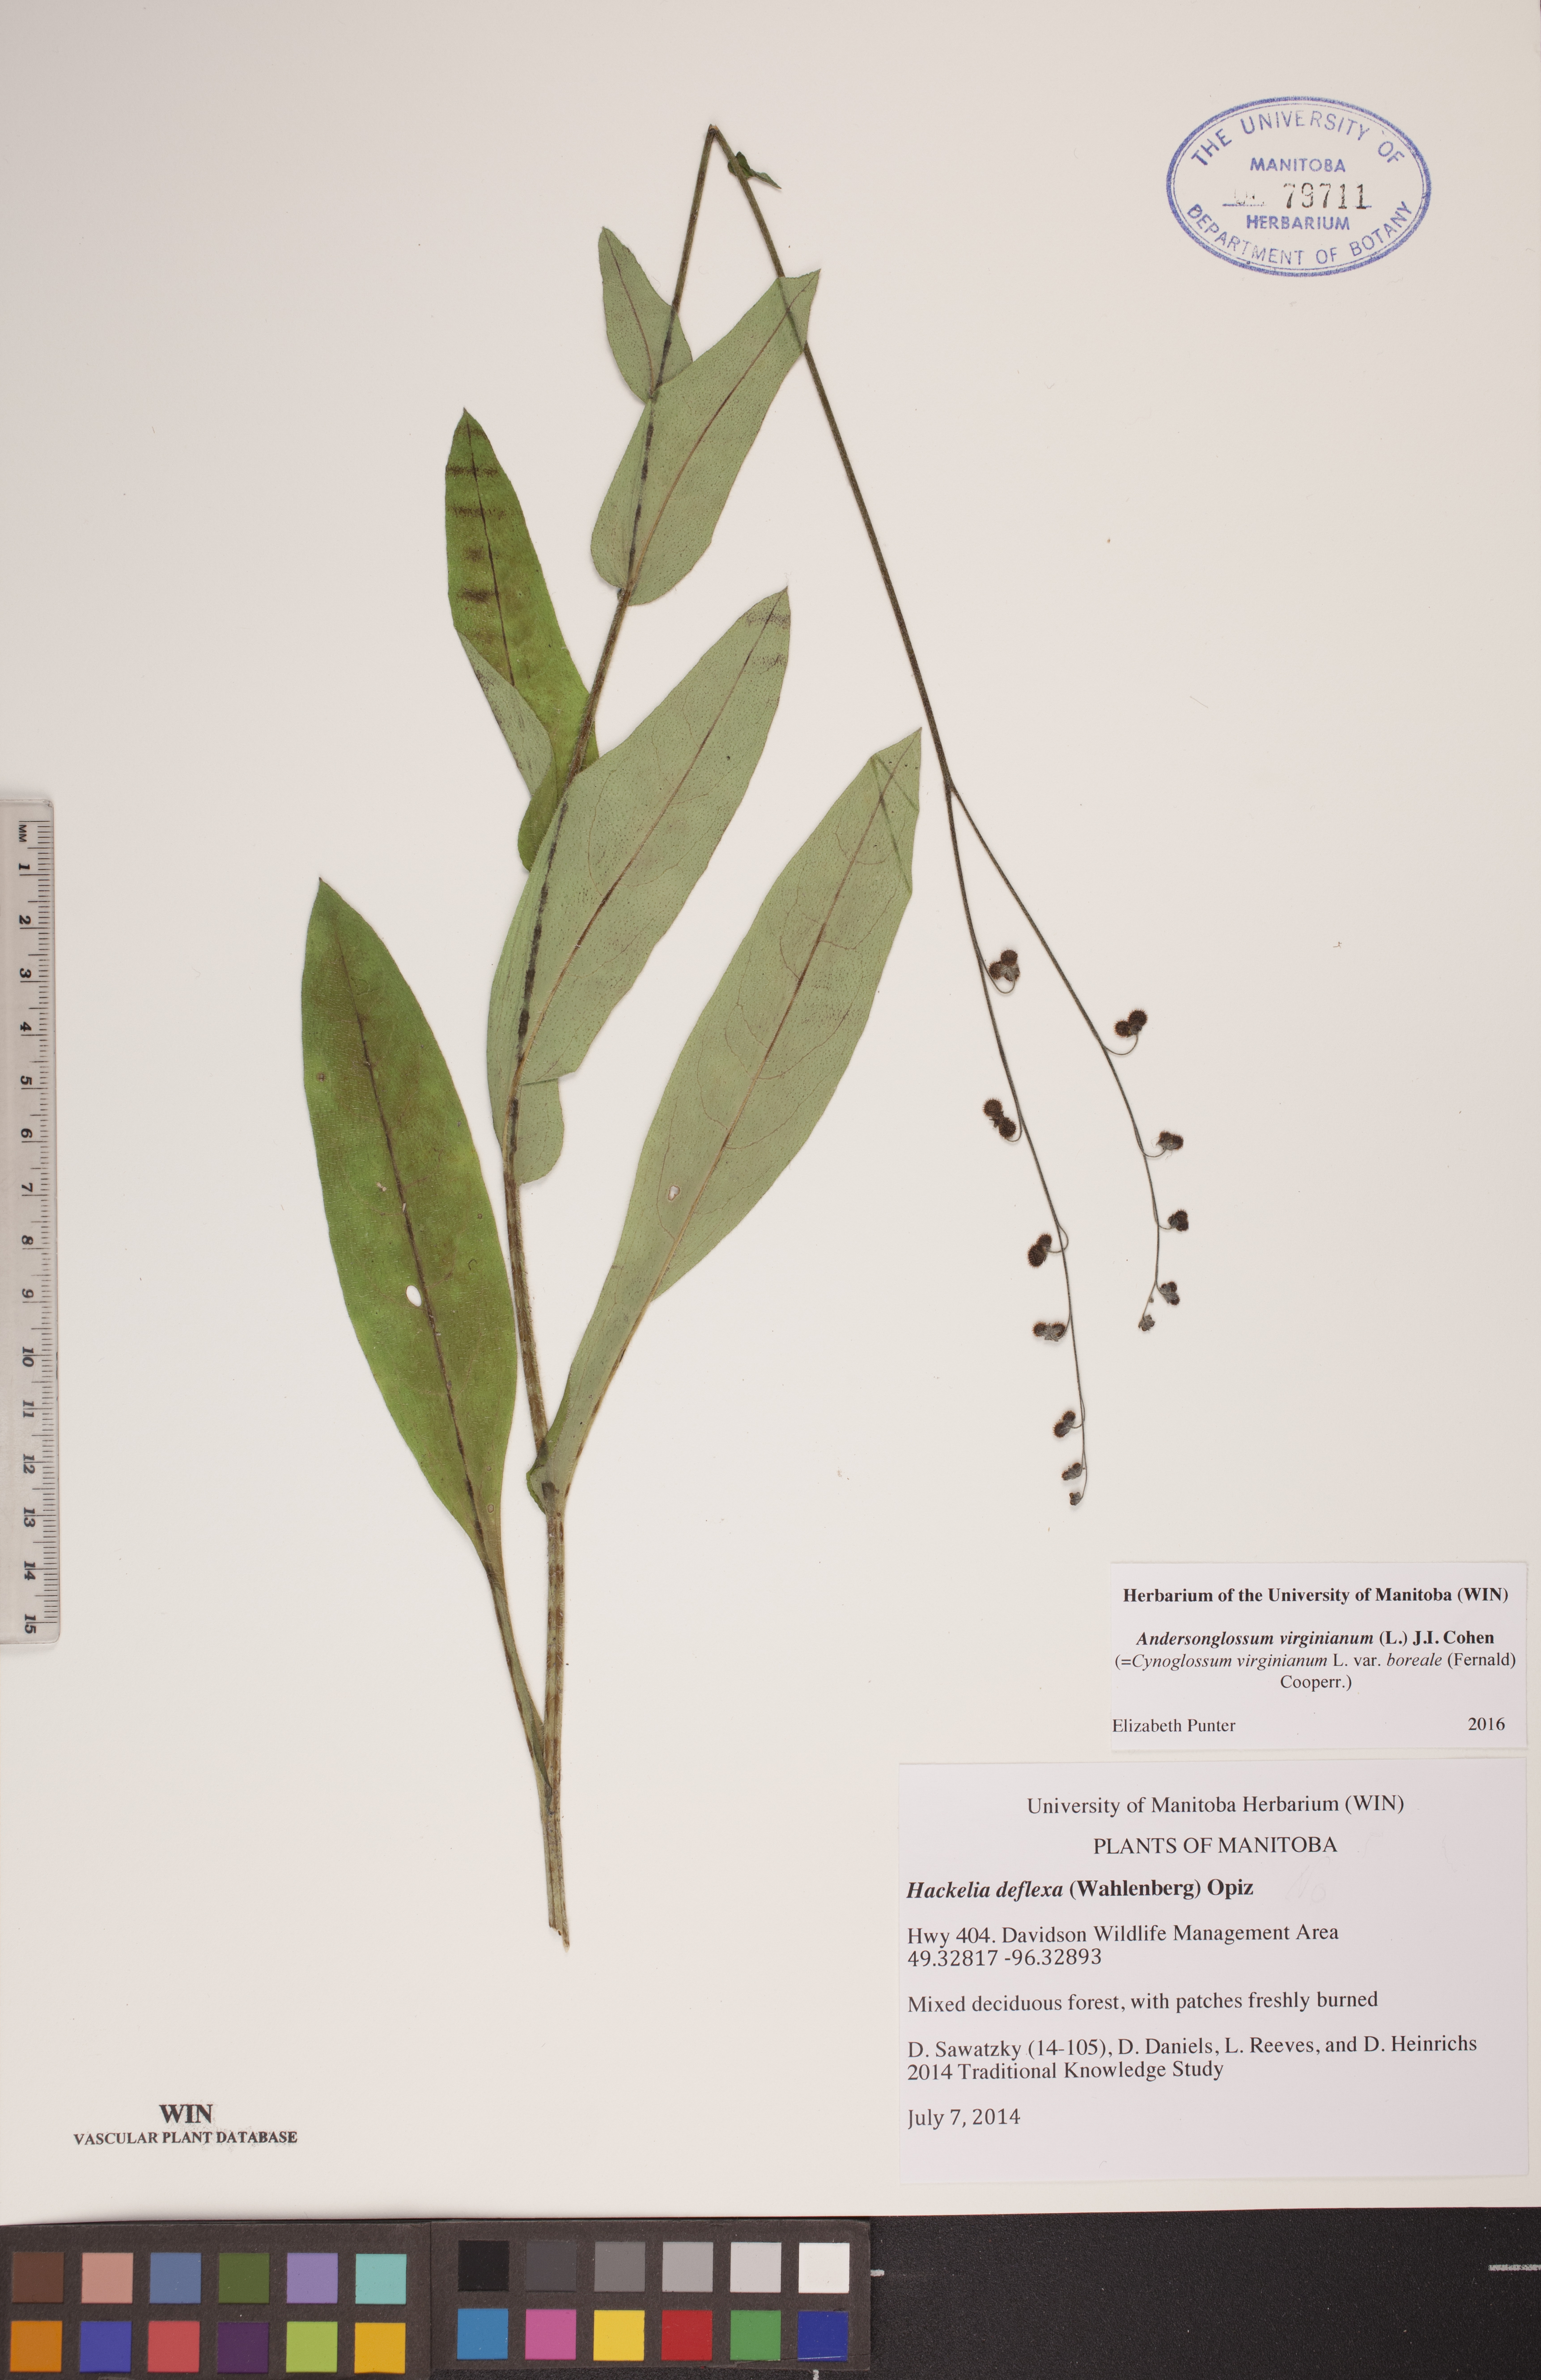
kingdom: Plantae
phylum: Tracheophyta
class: Magnoliopsida
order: Boraginales
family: Boraginaceae
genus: Andersonglossum
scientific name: Andersonglossum virginianum
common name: Wild comfrey
